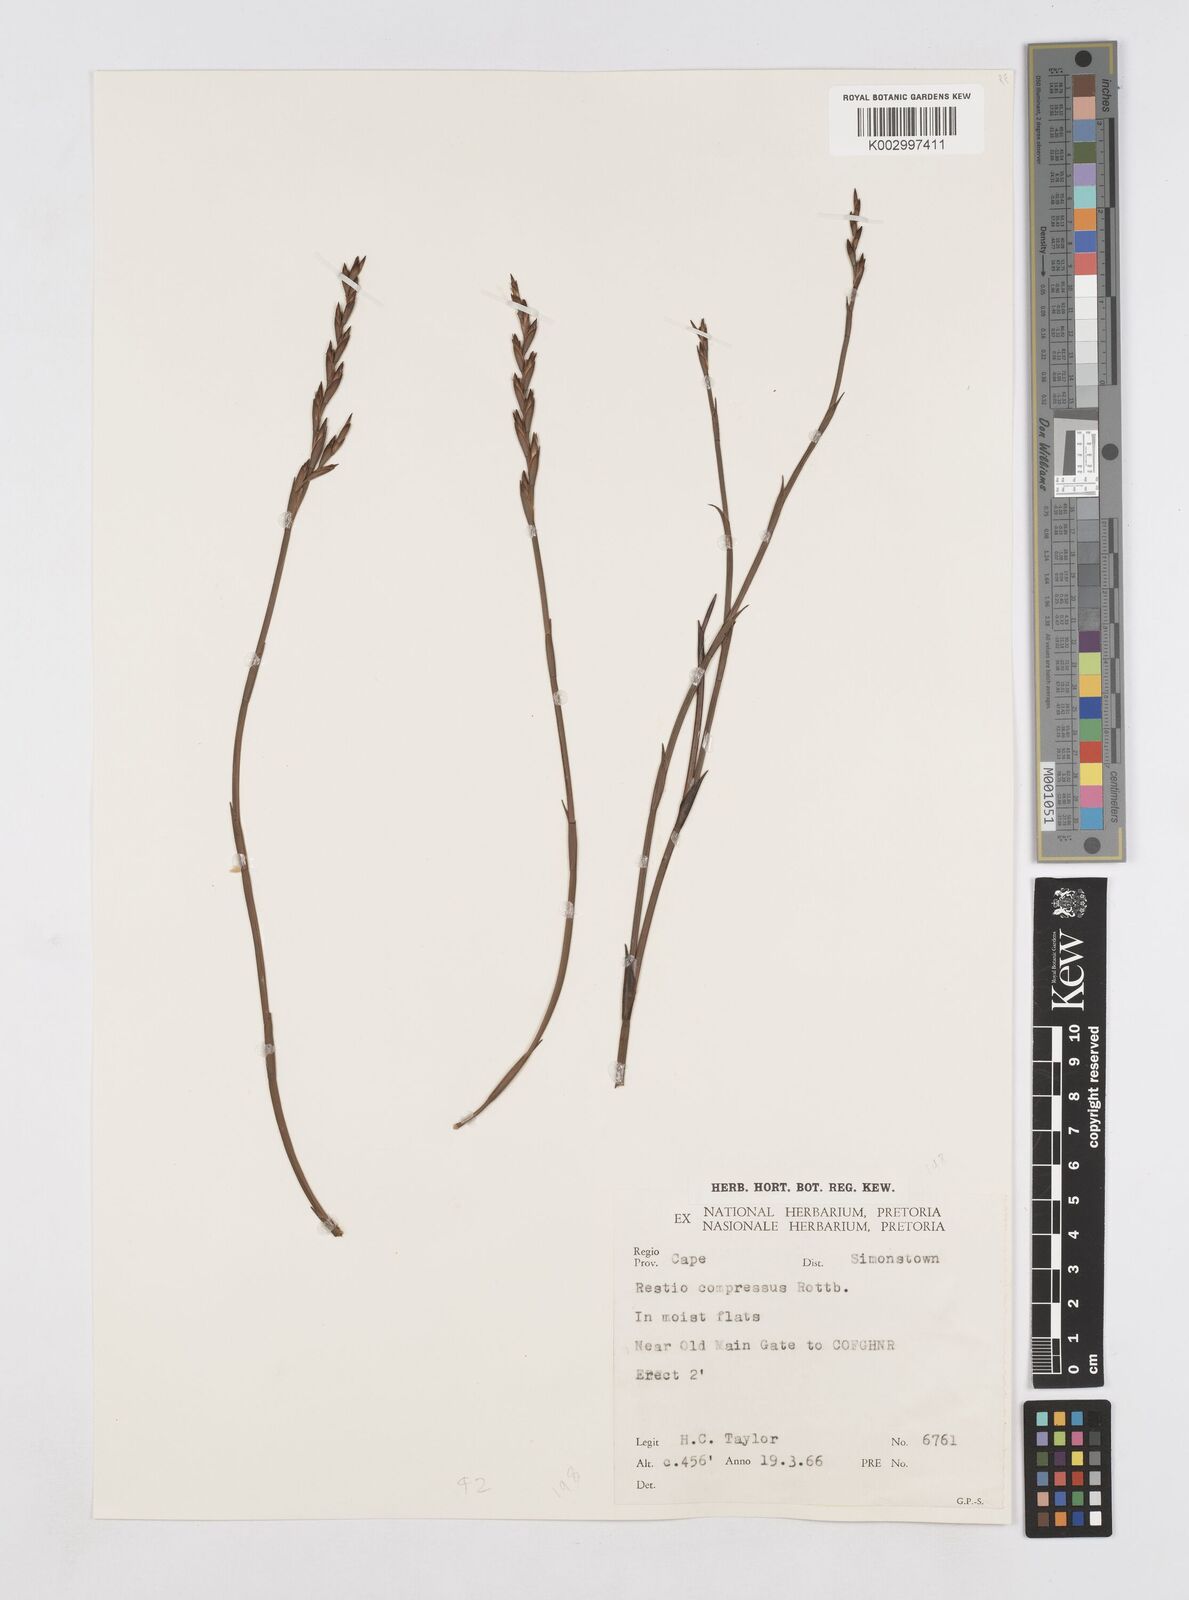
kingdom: Plantae
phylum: Tracheophyta
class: Liliopsida
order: Poales
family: Restionaceae
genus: Platycaulos
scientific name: Platycaulos compressus
